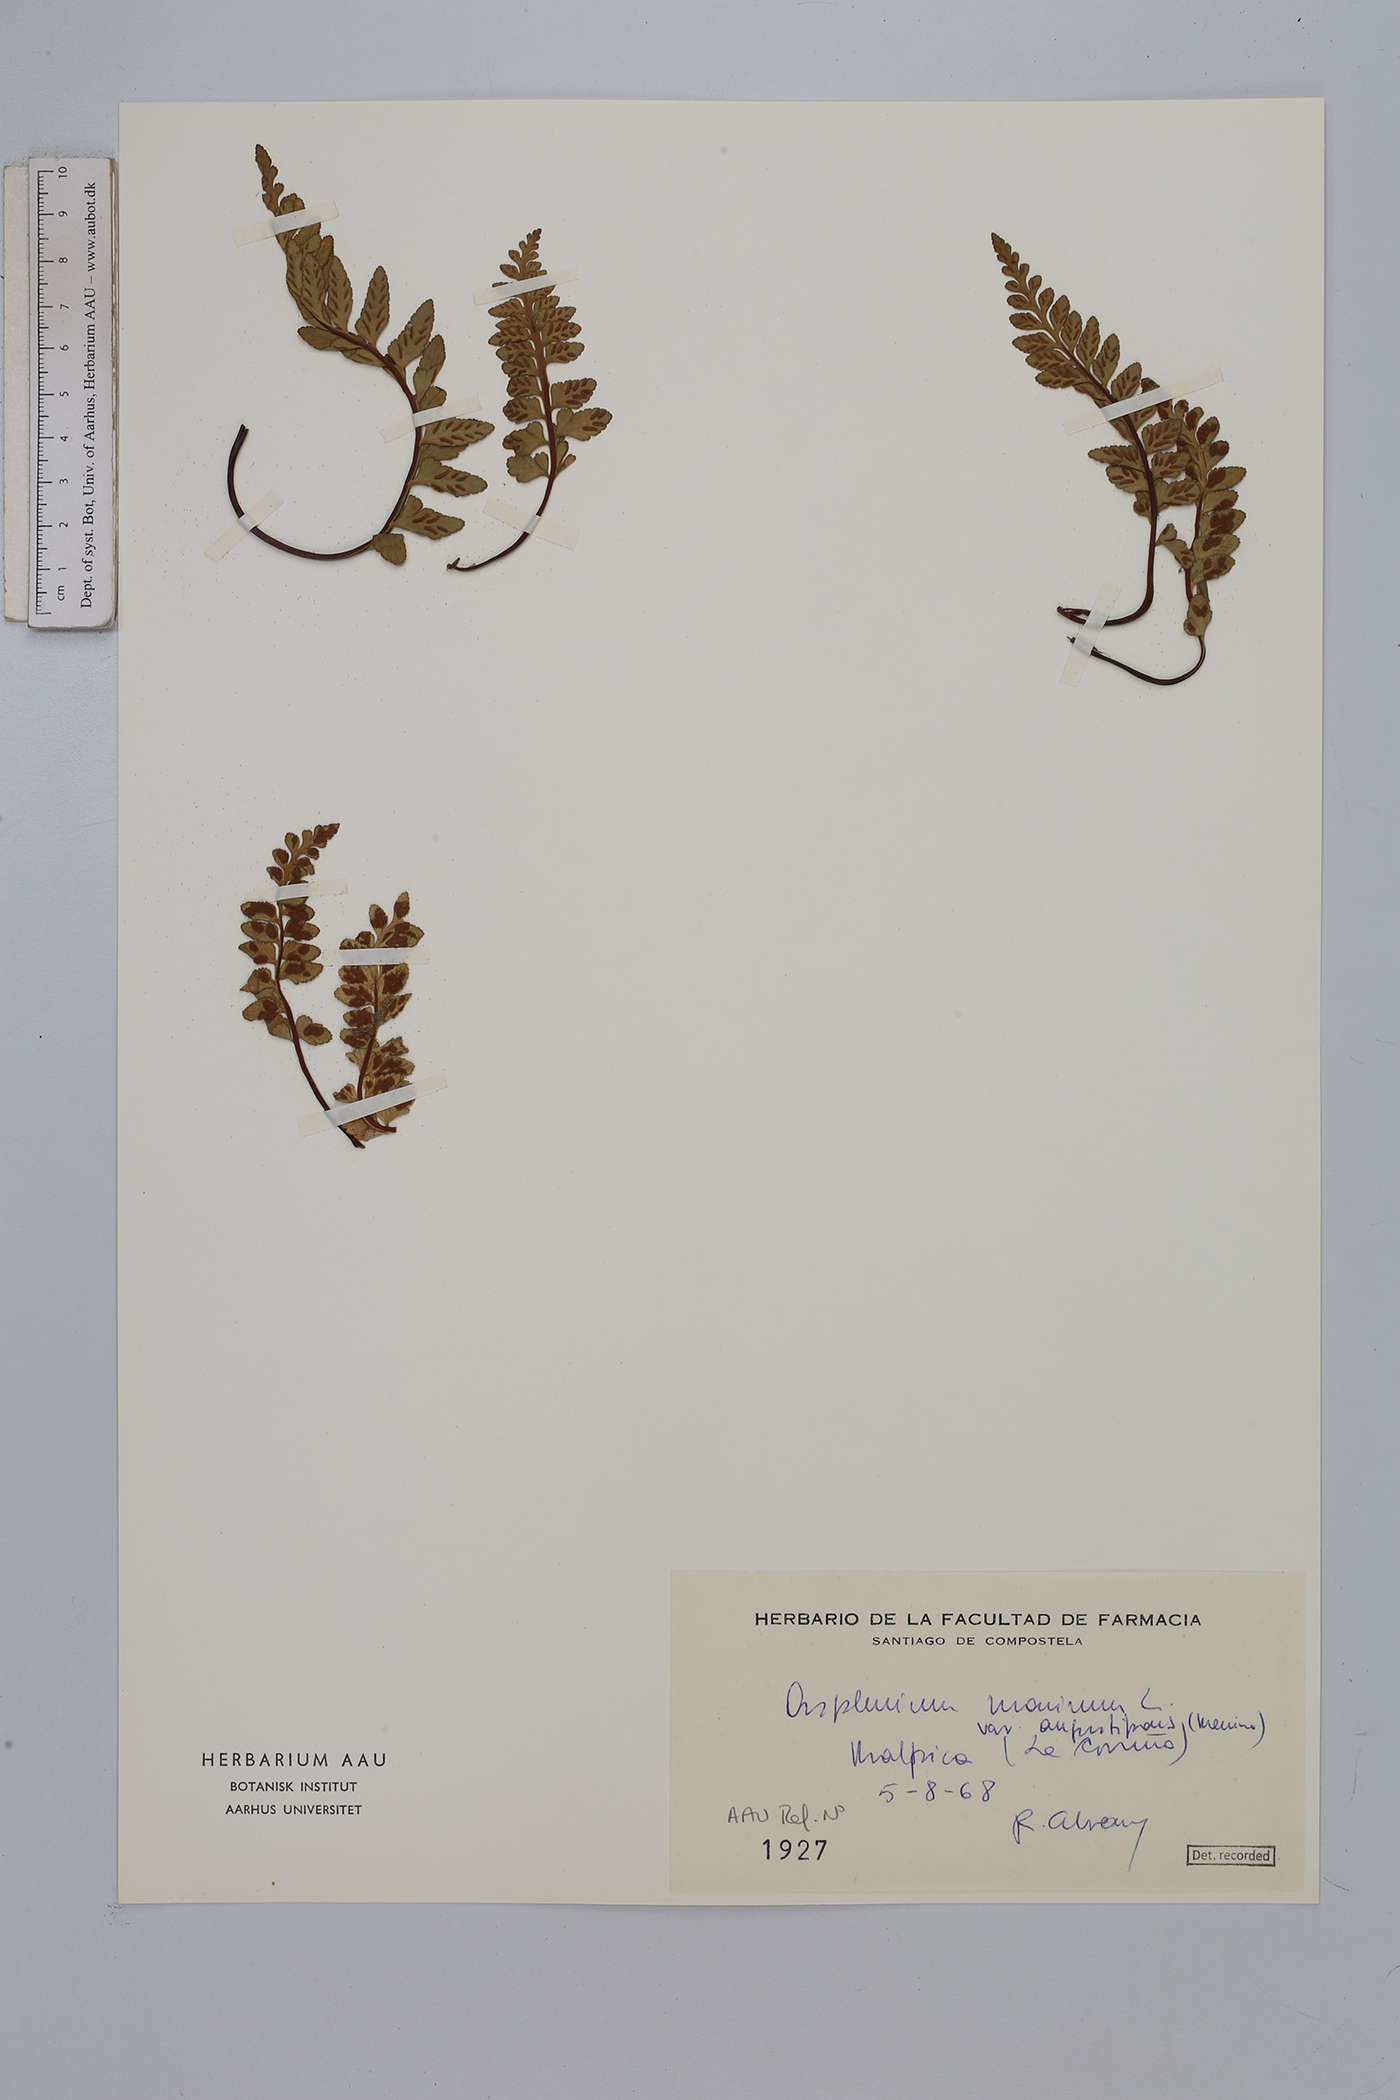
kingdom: Plantae
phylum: Tracheophyta
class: Polypodiopsida
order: Polypodiales
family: Aspleniaceae
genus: Asplenium
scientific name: Asplenium marinum
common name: Sea spleenwort
